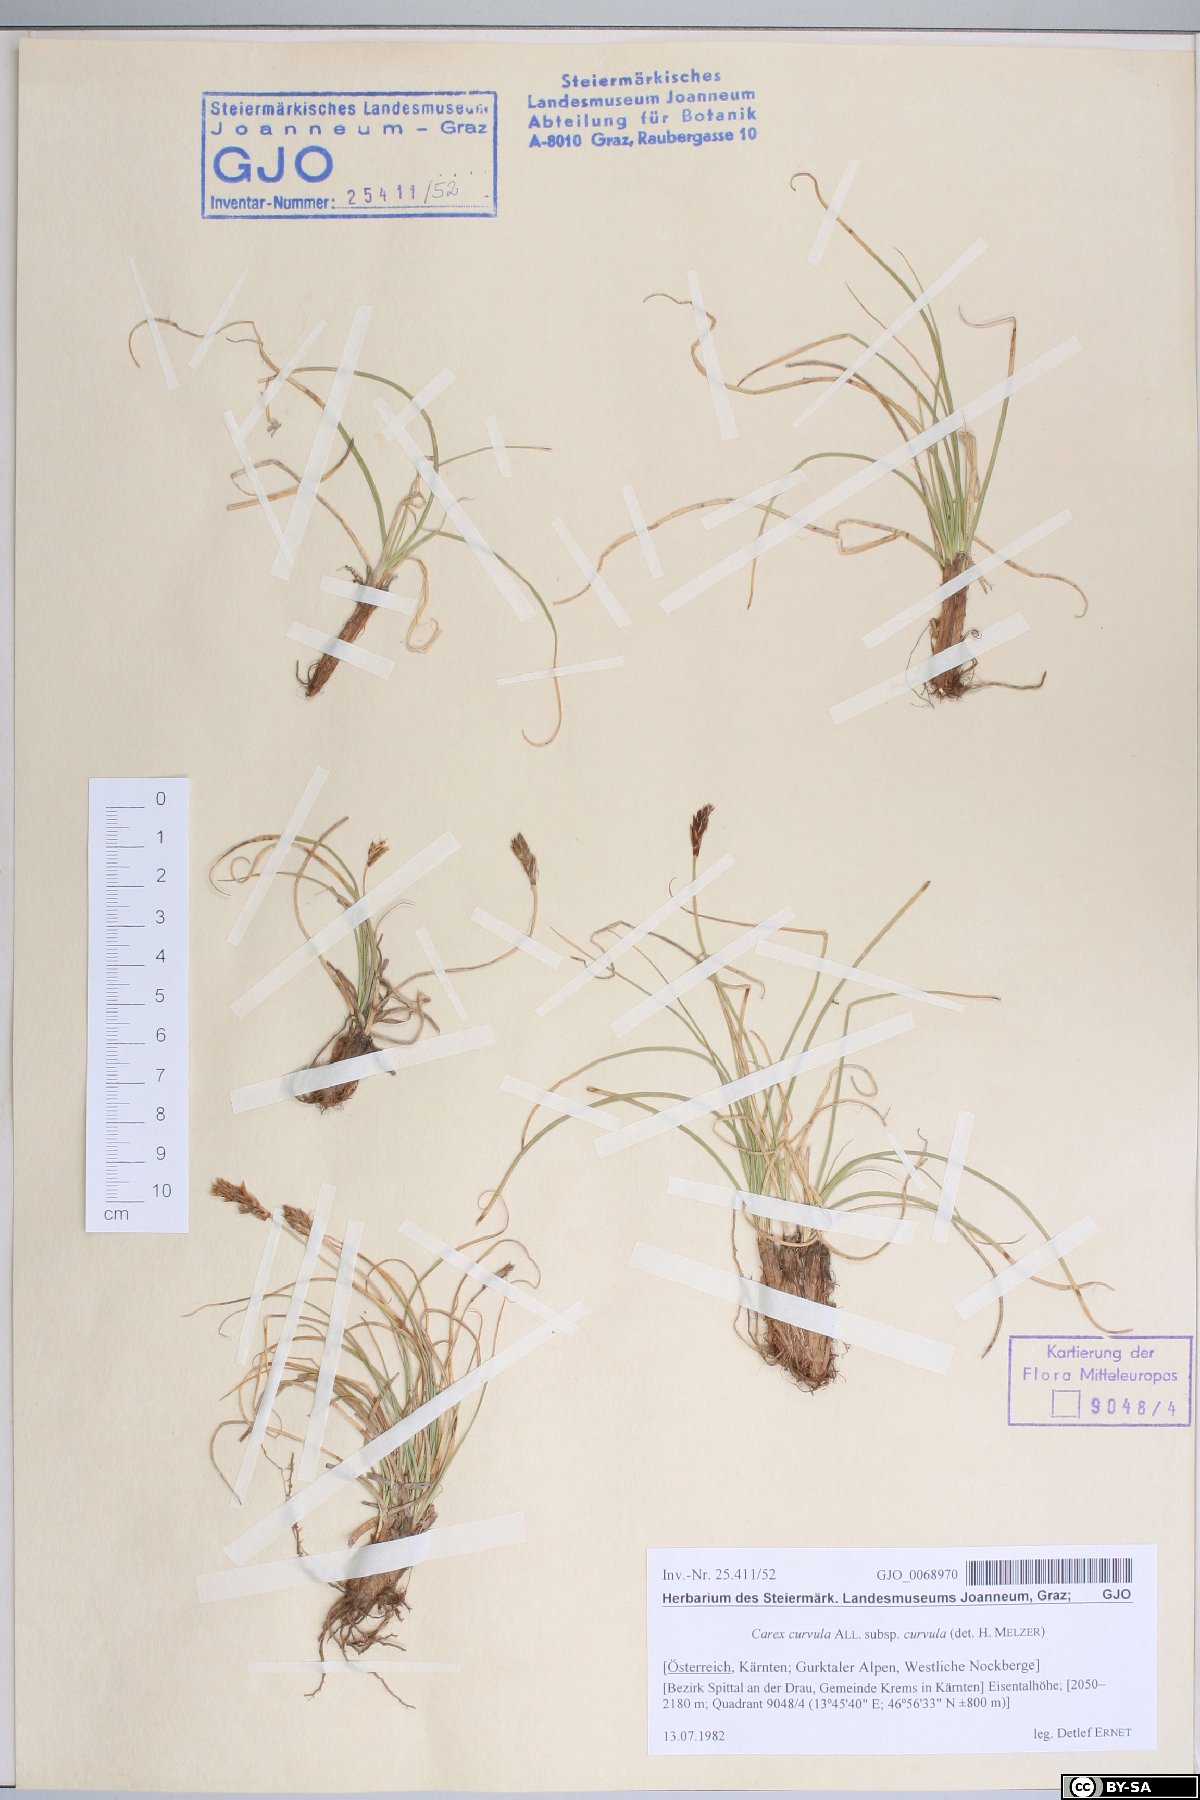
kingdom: Plantae
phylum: Tracheophyta
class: Liliopsida
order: Poales
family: Cyperaceae
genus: Carex
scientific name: Carex curvula
